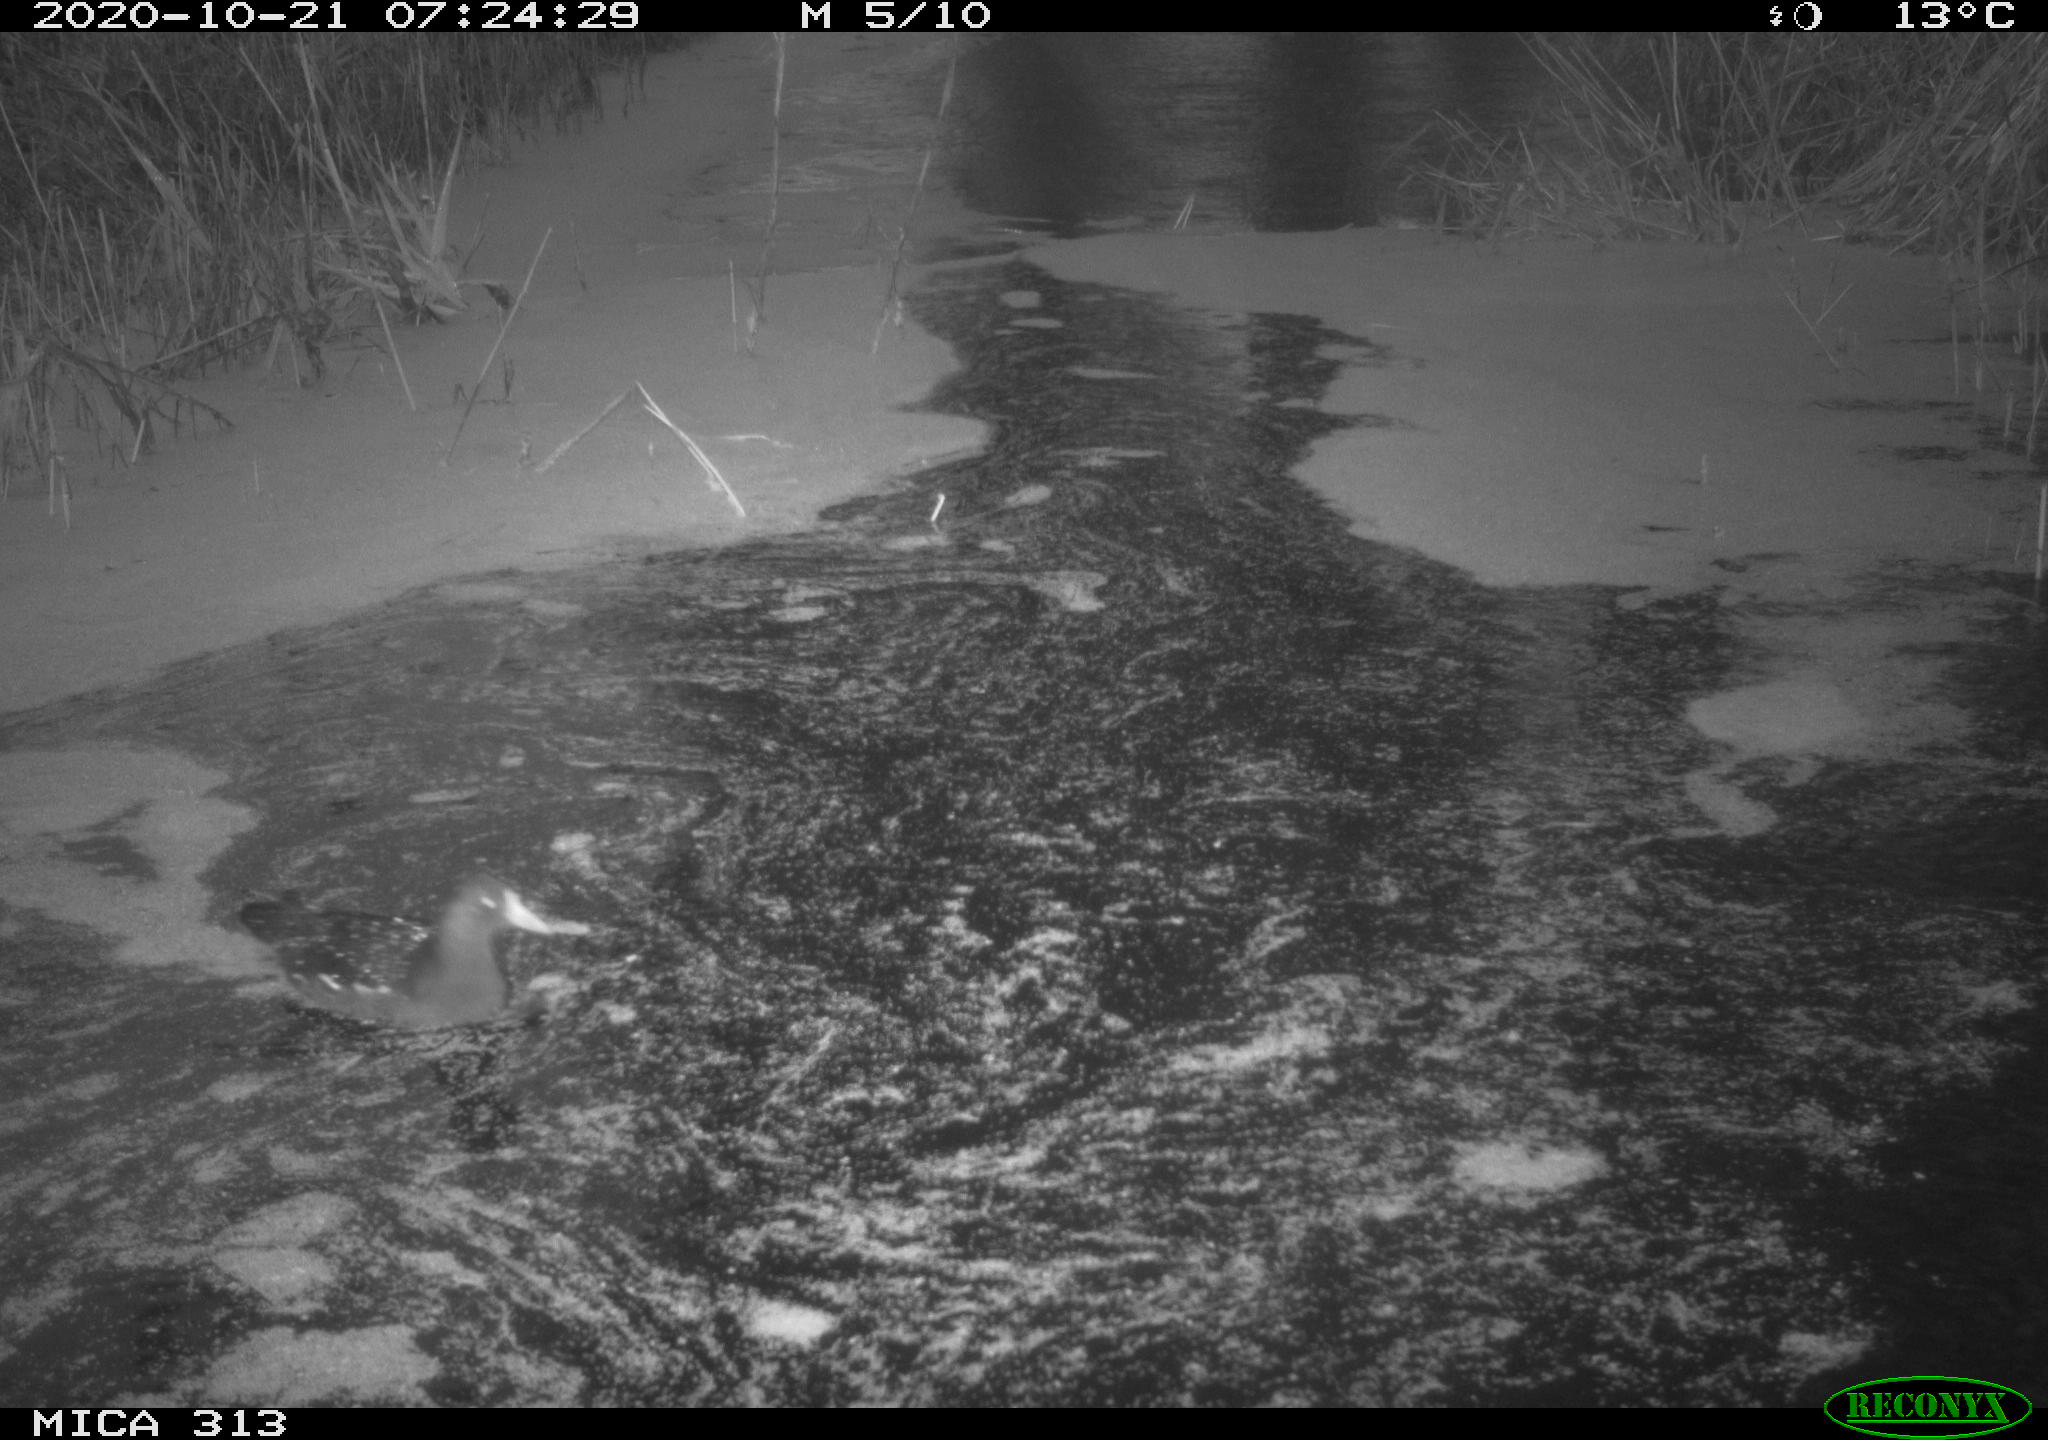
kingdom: Animalia
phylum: Chordata
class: Aves
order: Gruiformes
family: Rallidae
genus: Fulica
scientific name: Fulica atra
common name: Eurasian coot
